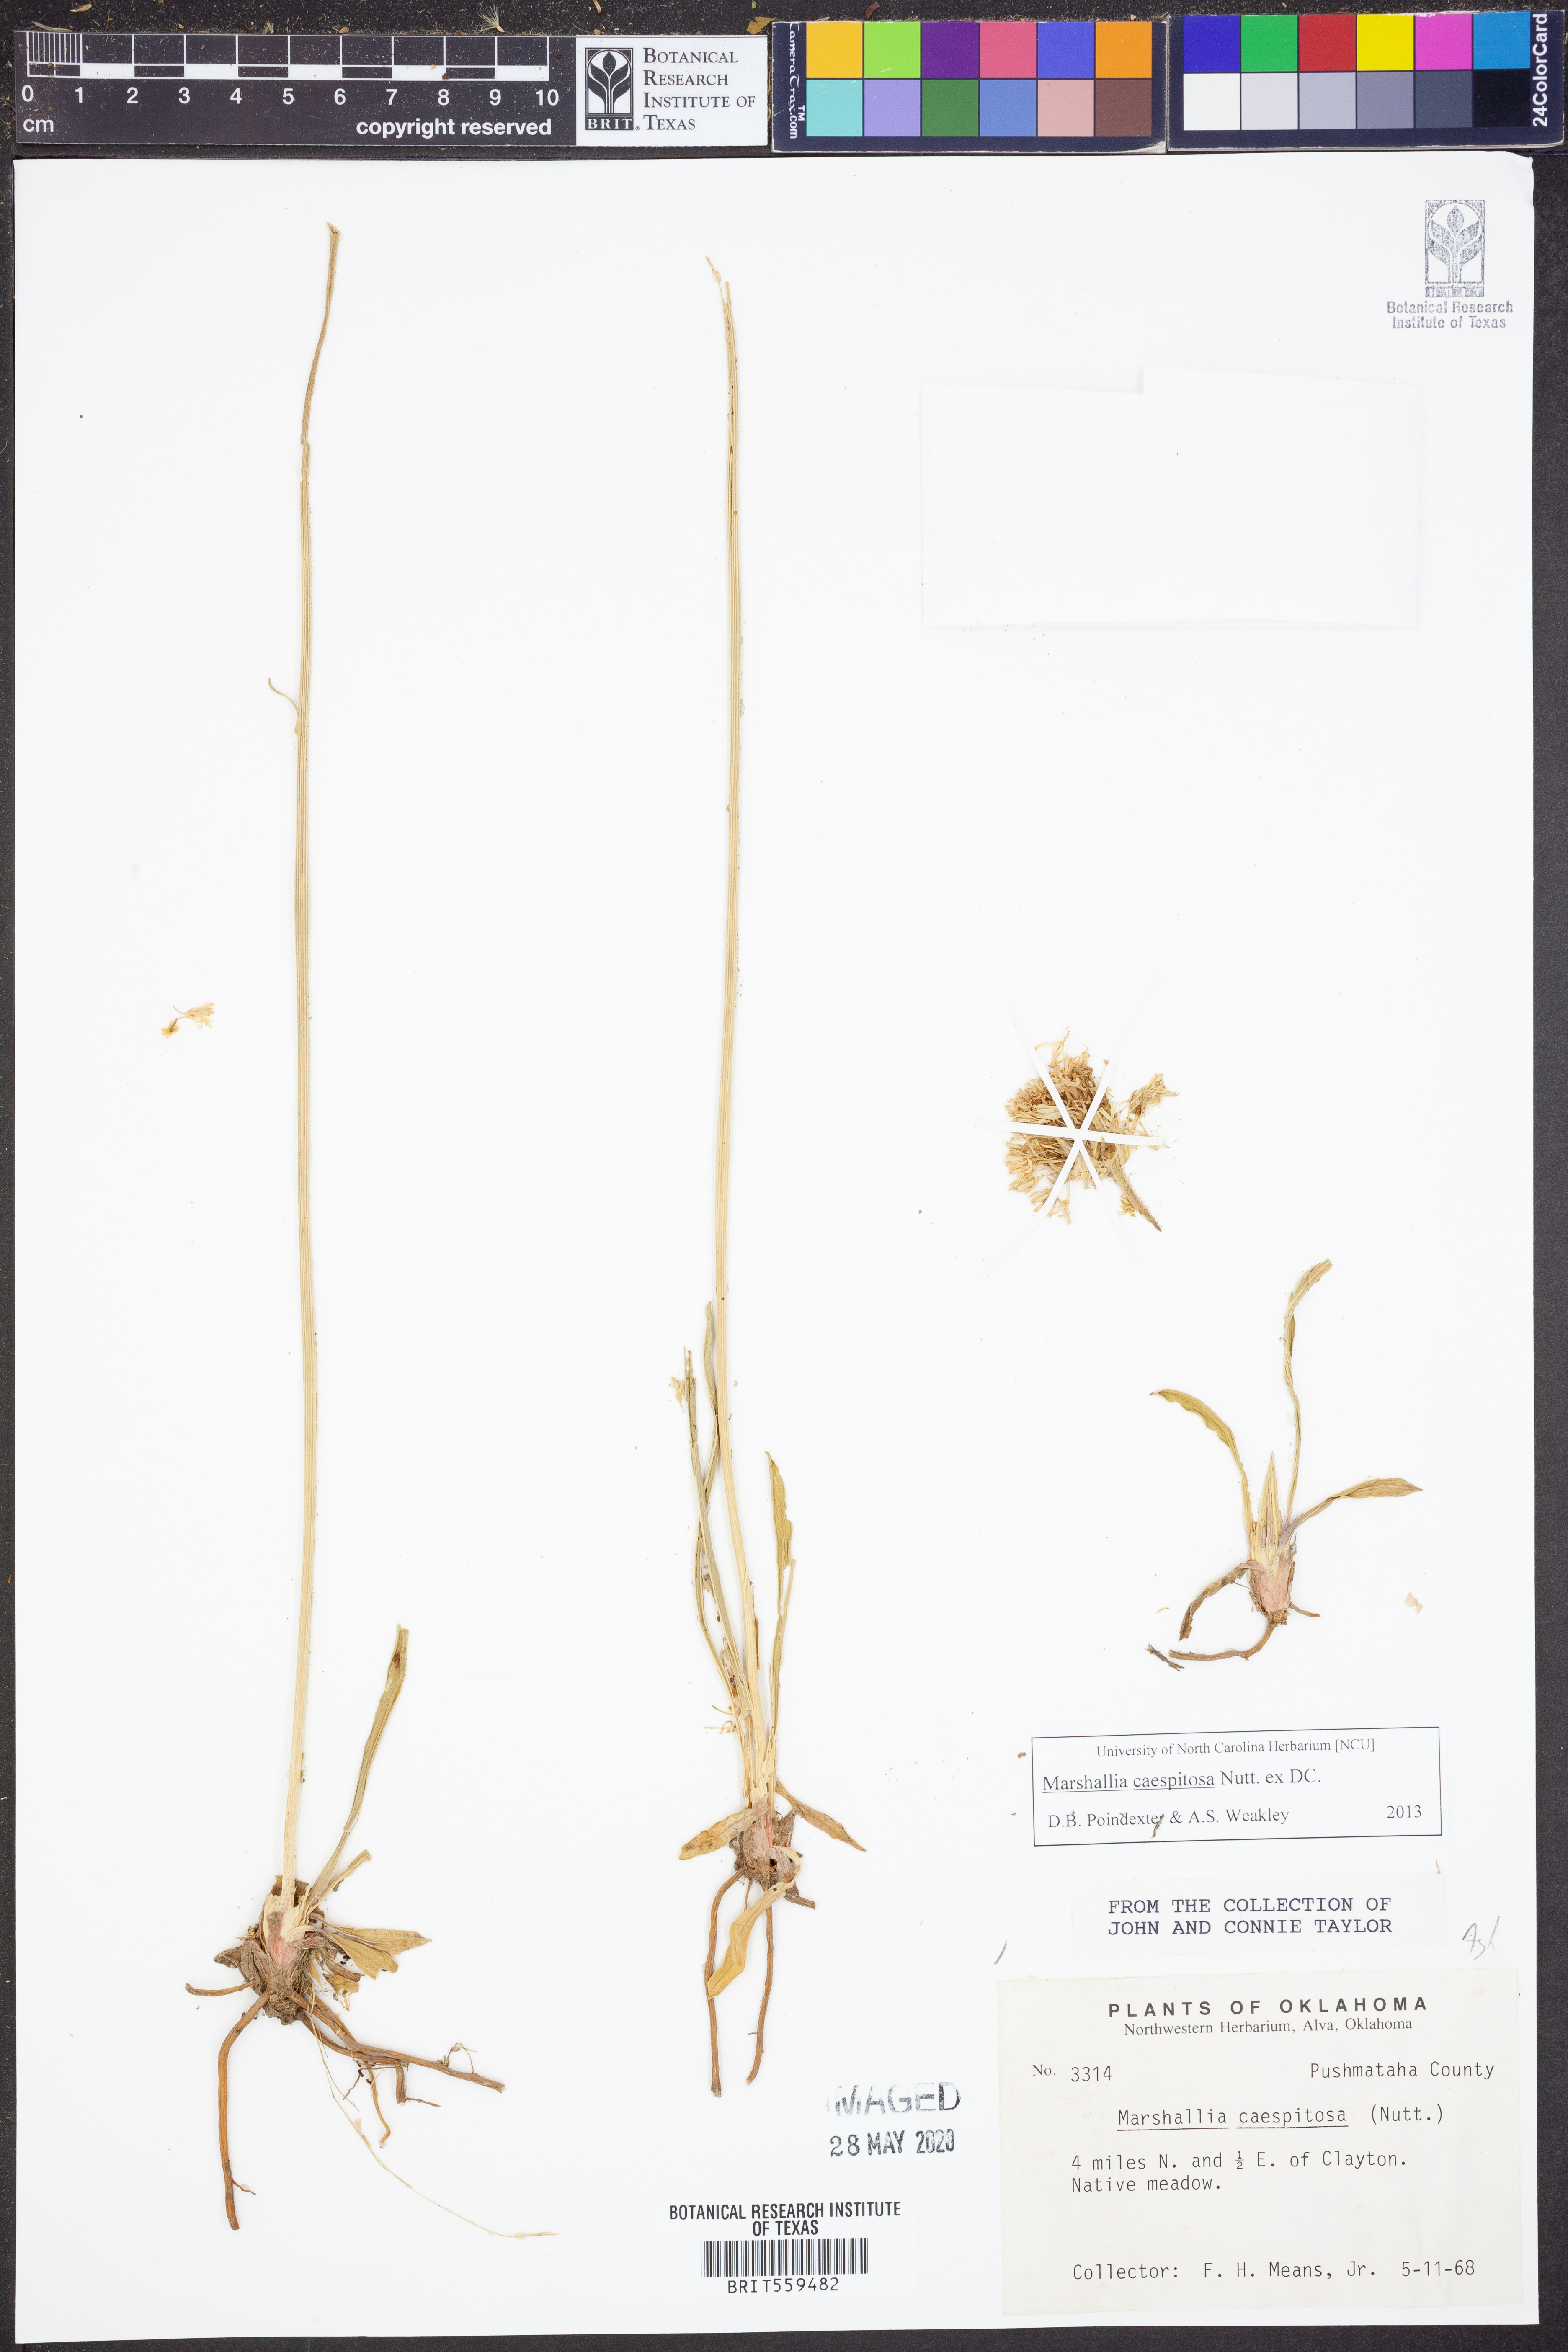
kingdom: Plantae
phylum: Tracheophyta
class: Magnoliopsida
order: Asterales
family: Asteraceae
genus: Marshallia
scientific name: Marshallia caespitosa
